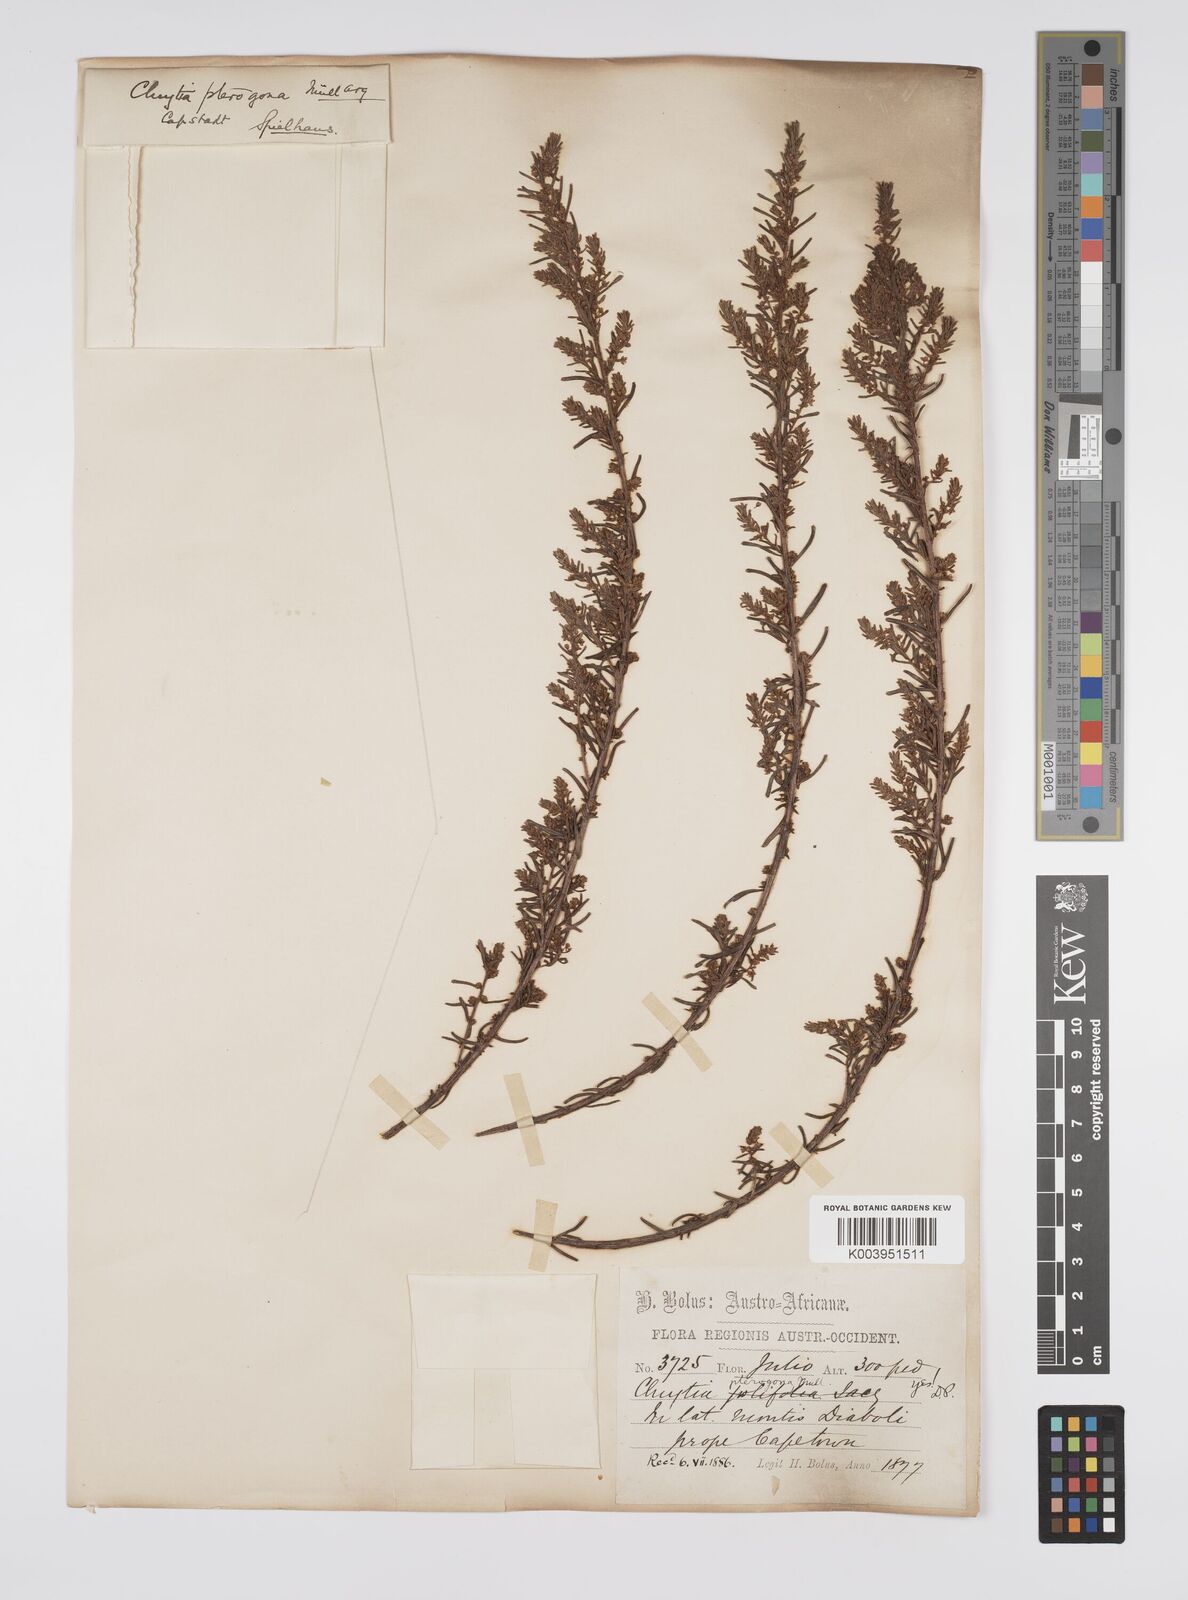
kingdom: Plantae
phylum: Tracheophyta
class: Magnoliopsida
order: Malpighiales
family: Peraceae
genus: Clutia
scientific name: Clutia pterogona
